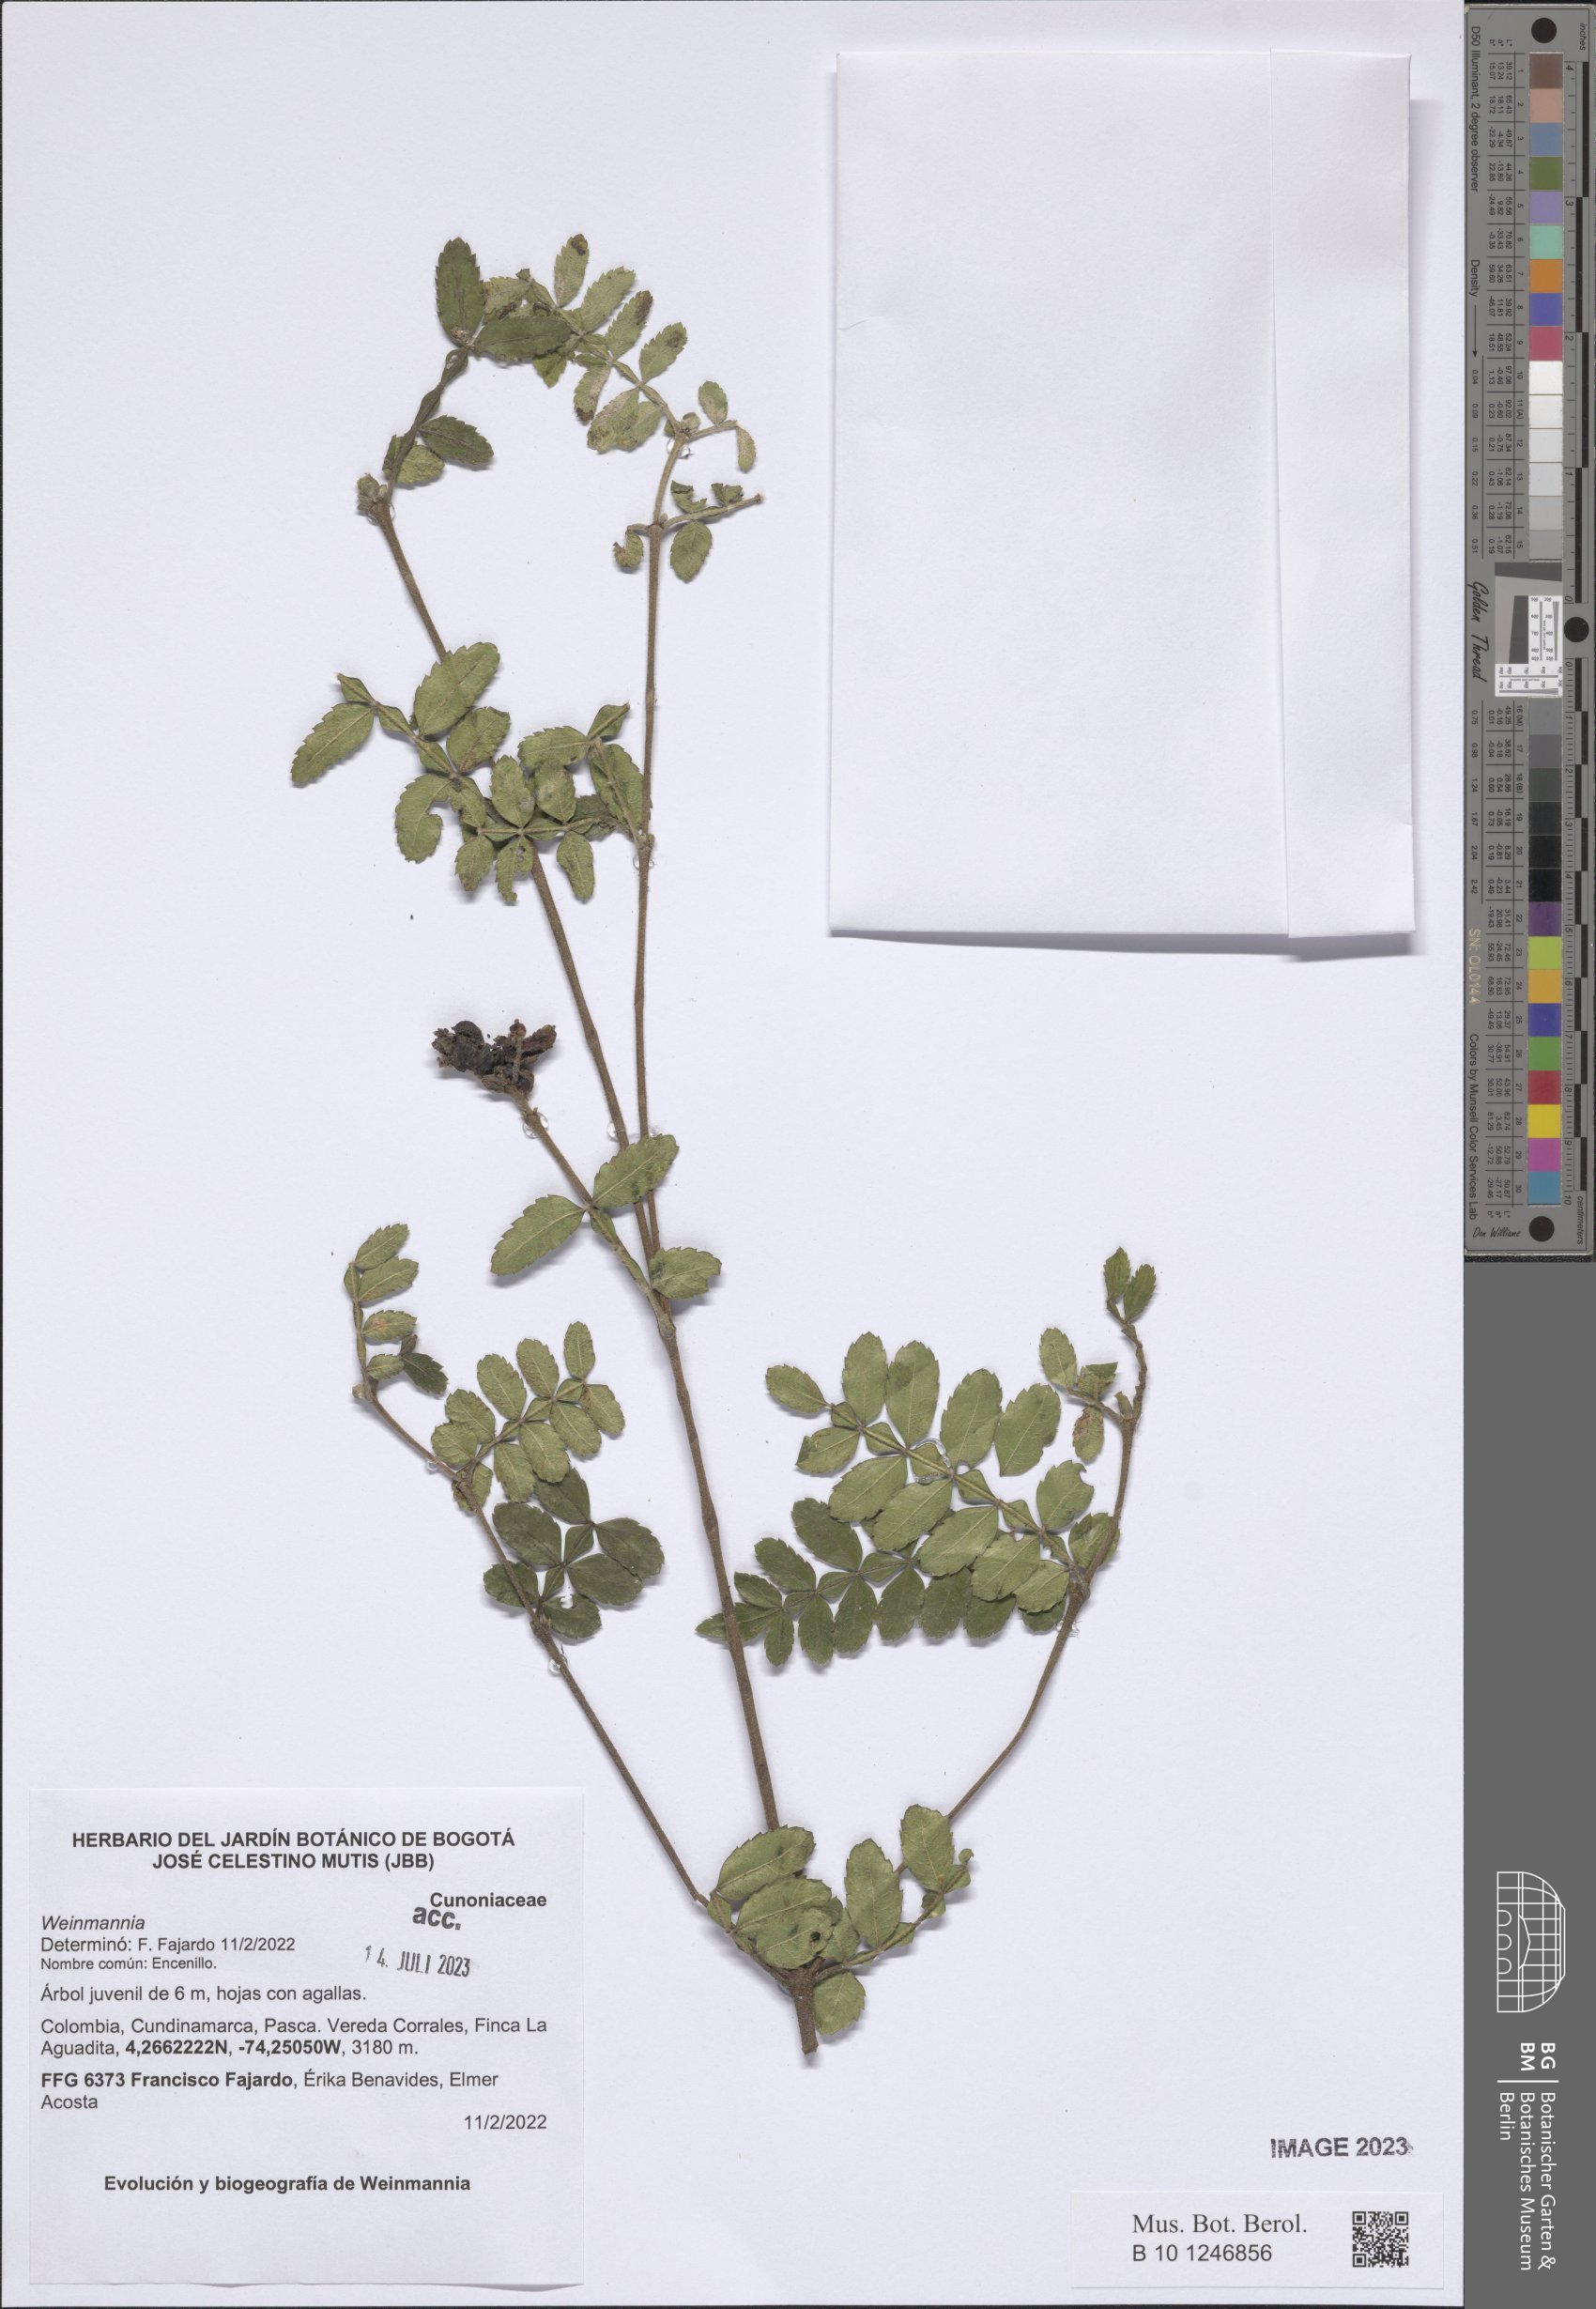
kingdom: Plantae
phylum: Tracheophyta
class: Magnoliopsida
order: Oxalidales
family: Cunoniaceae
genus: Weinmannia
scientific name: Weinmannia
